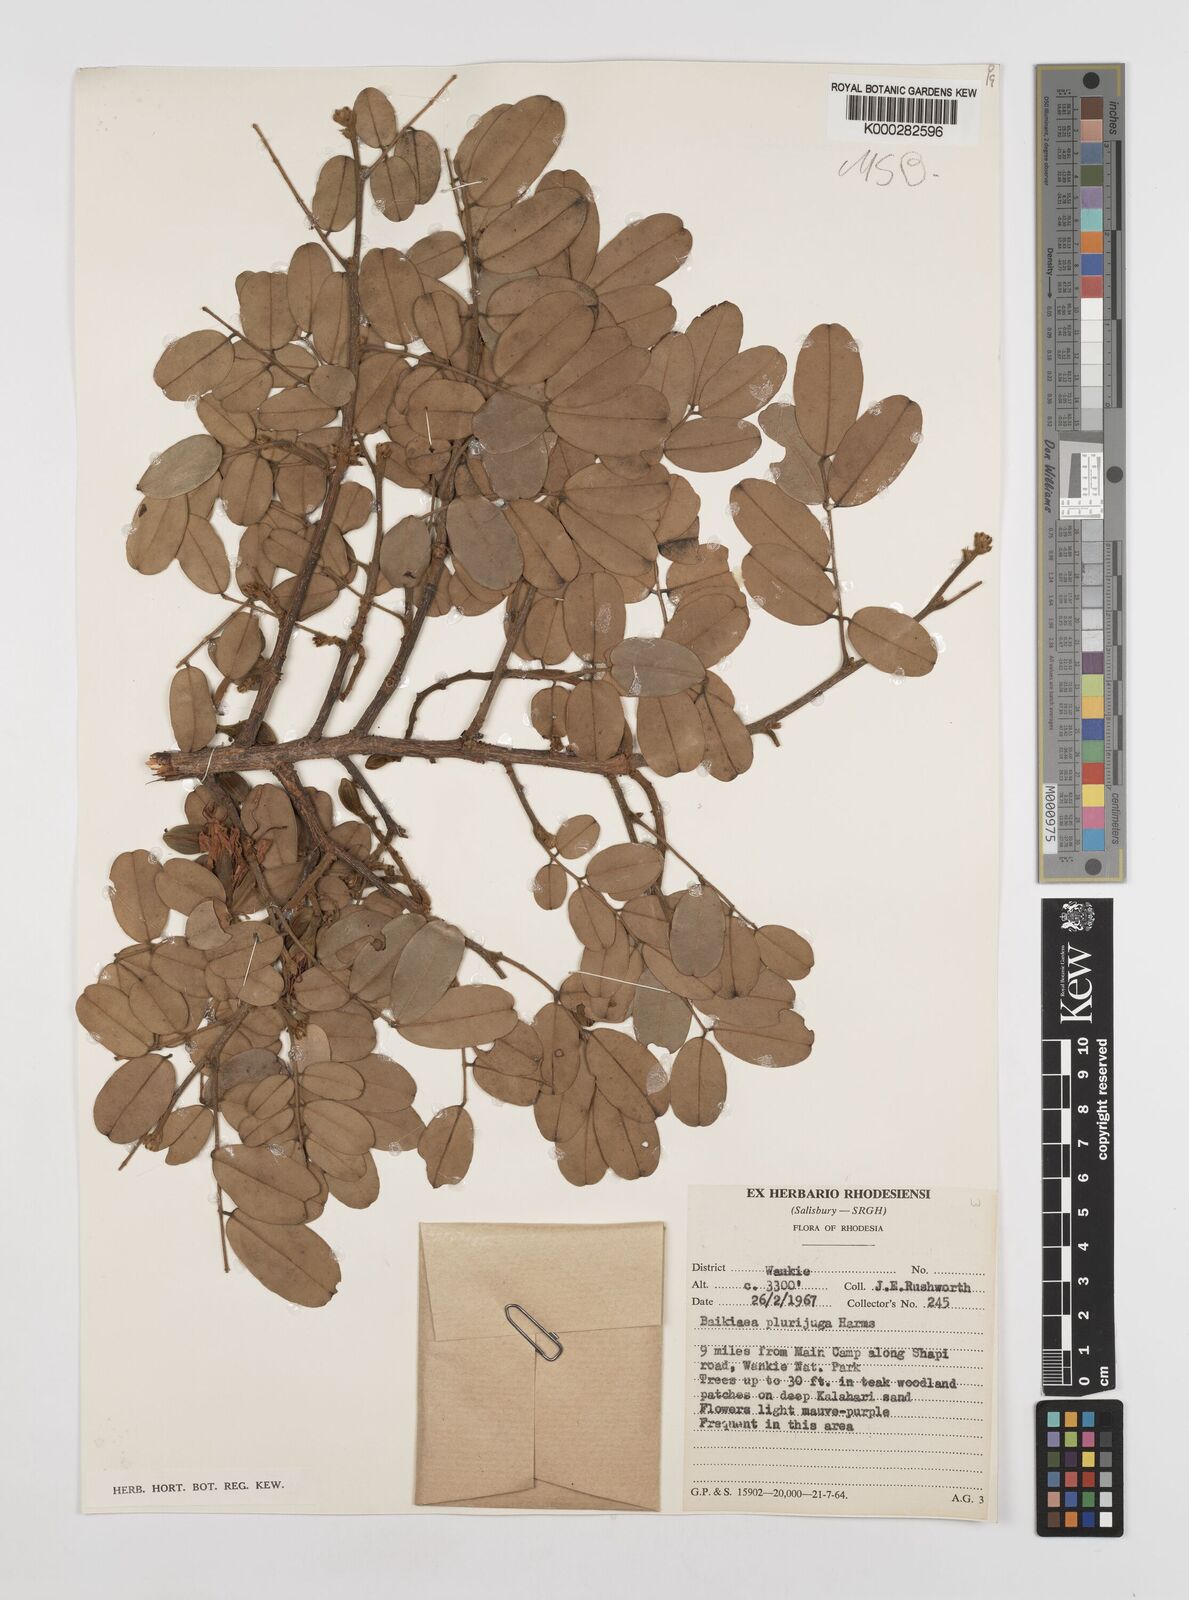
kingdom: Plantae
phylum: Tracheophyta
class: Magnoliopsida
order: Fabales
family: Fabaceae
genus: Baikiaea
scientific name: Baikiaea plurijuga
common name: Rhodesian-teak
